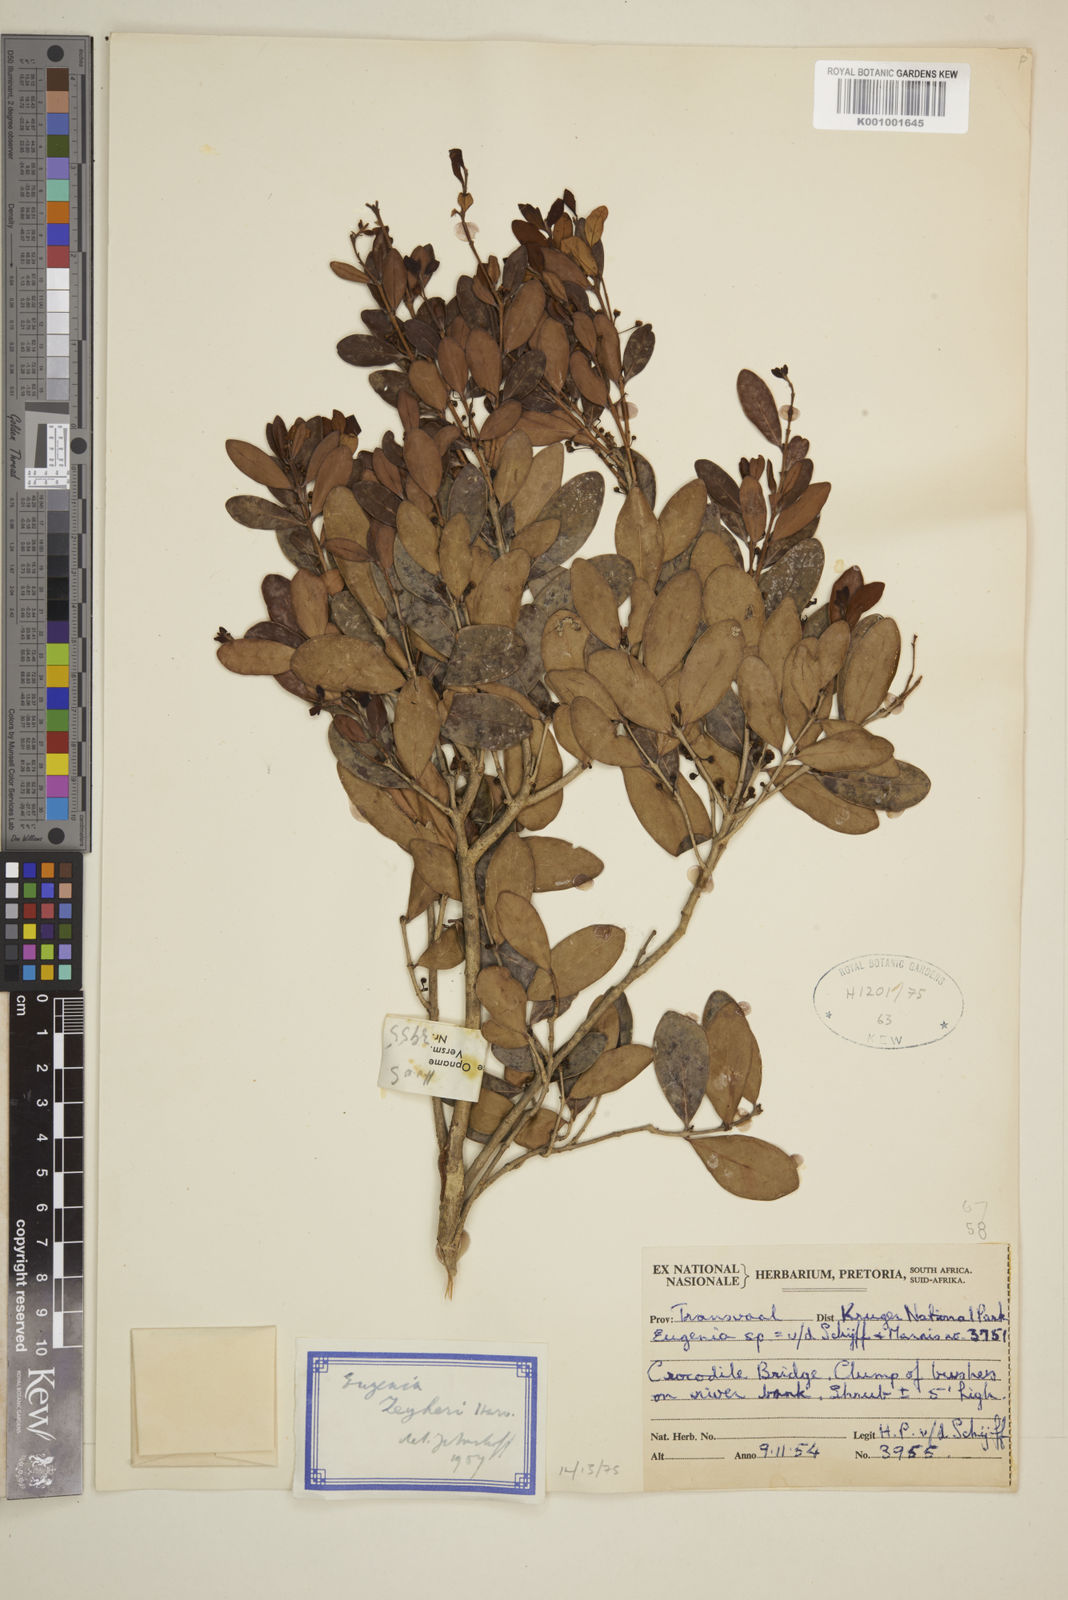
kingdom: Plantae
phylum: Tracheophyta
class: Magnoliopsida
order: Myrtales
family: Myrtaceae
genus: Eugenia
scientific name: Eugenia zeyheri
